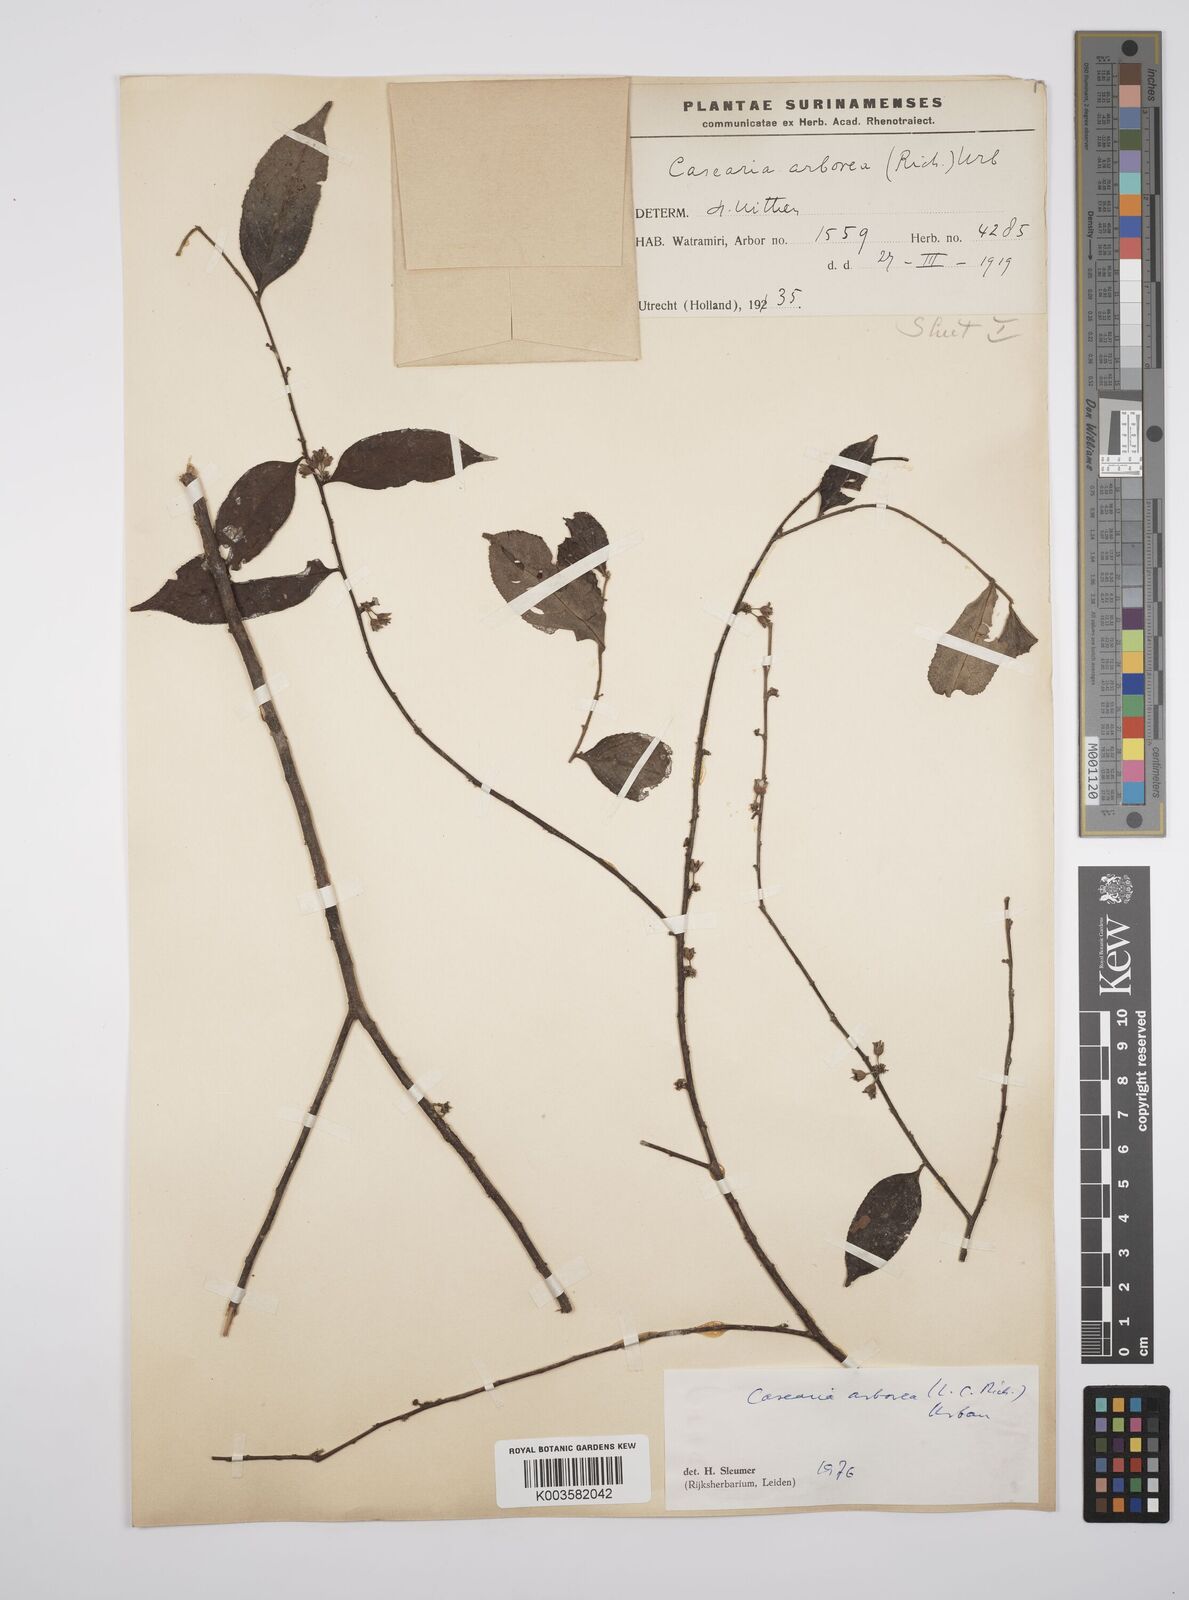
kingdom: Plantae
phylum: Tracheophyta
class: Magnoliopsida
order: Malpighiales
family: Salicaceae
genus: Casearia
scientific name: Casearia arborea
